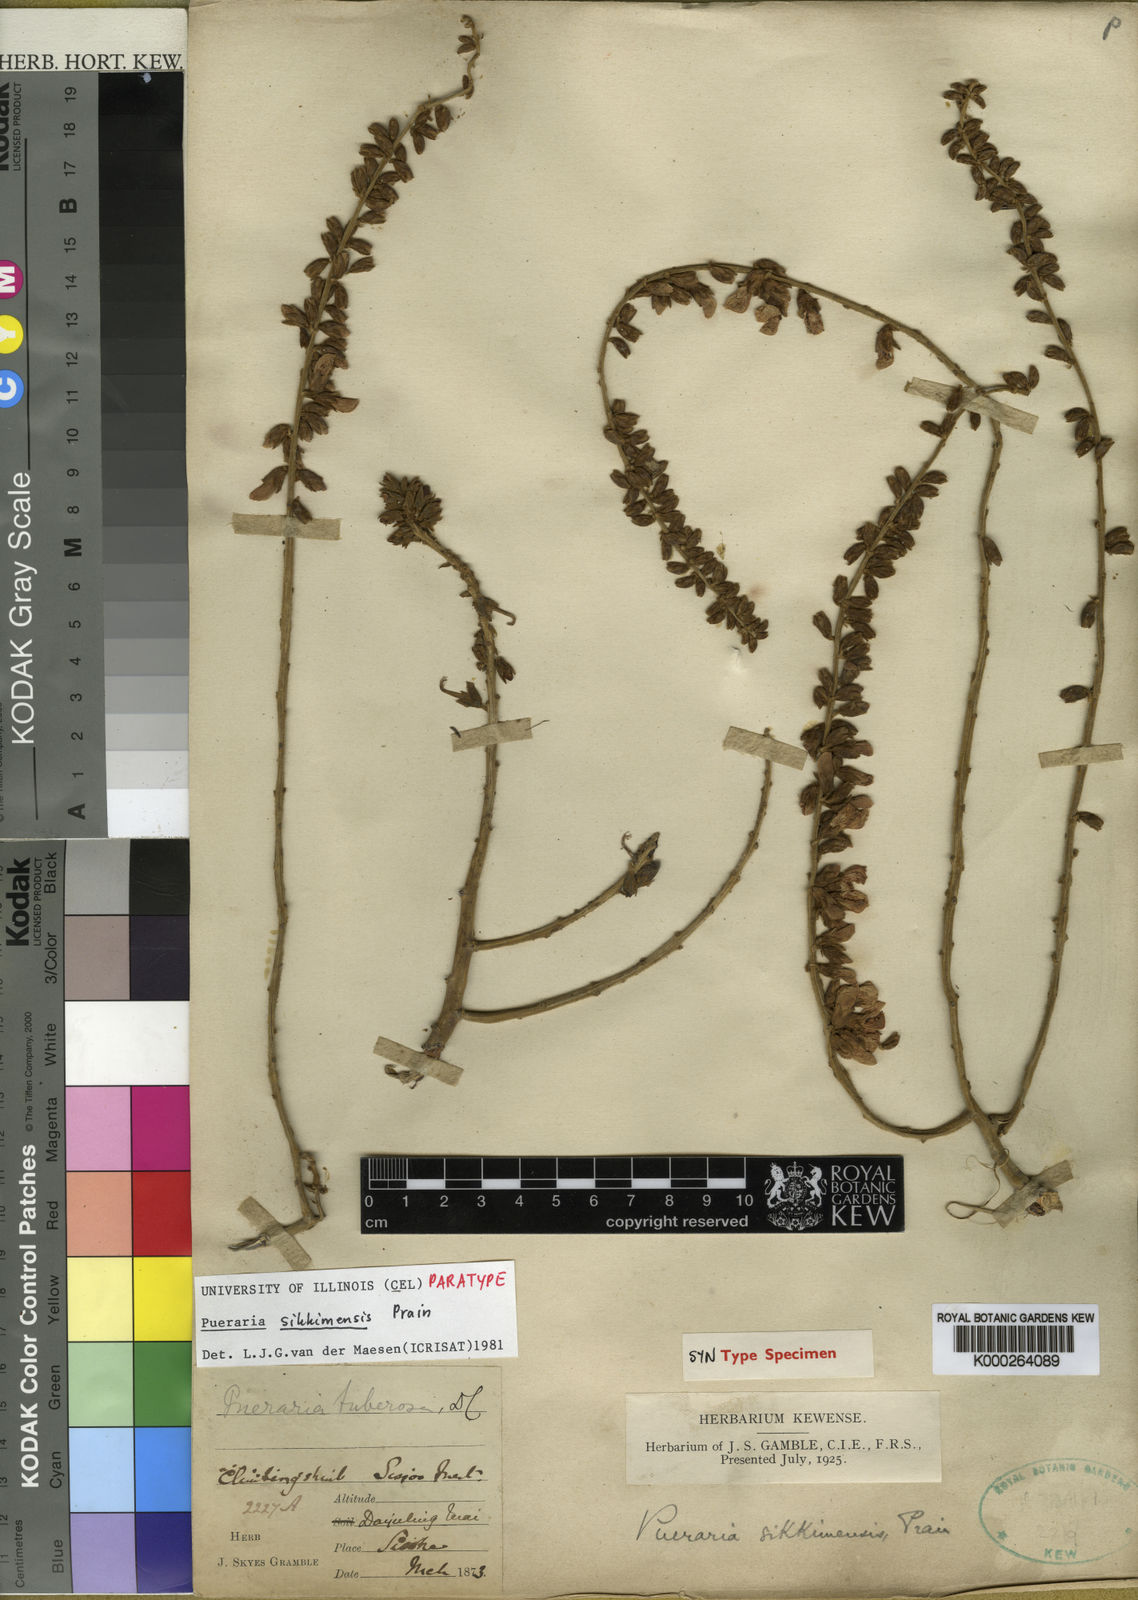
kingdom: Plantae
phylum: Tracheophyta
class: Magnoliopsida
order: Fabales
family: Fabaceae
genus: Pueraria
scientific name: Pueraria sikkimensis
